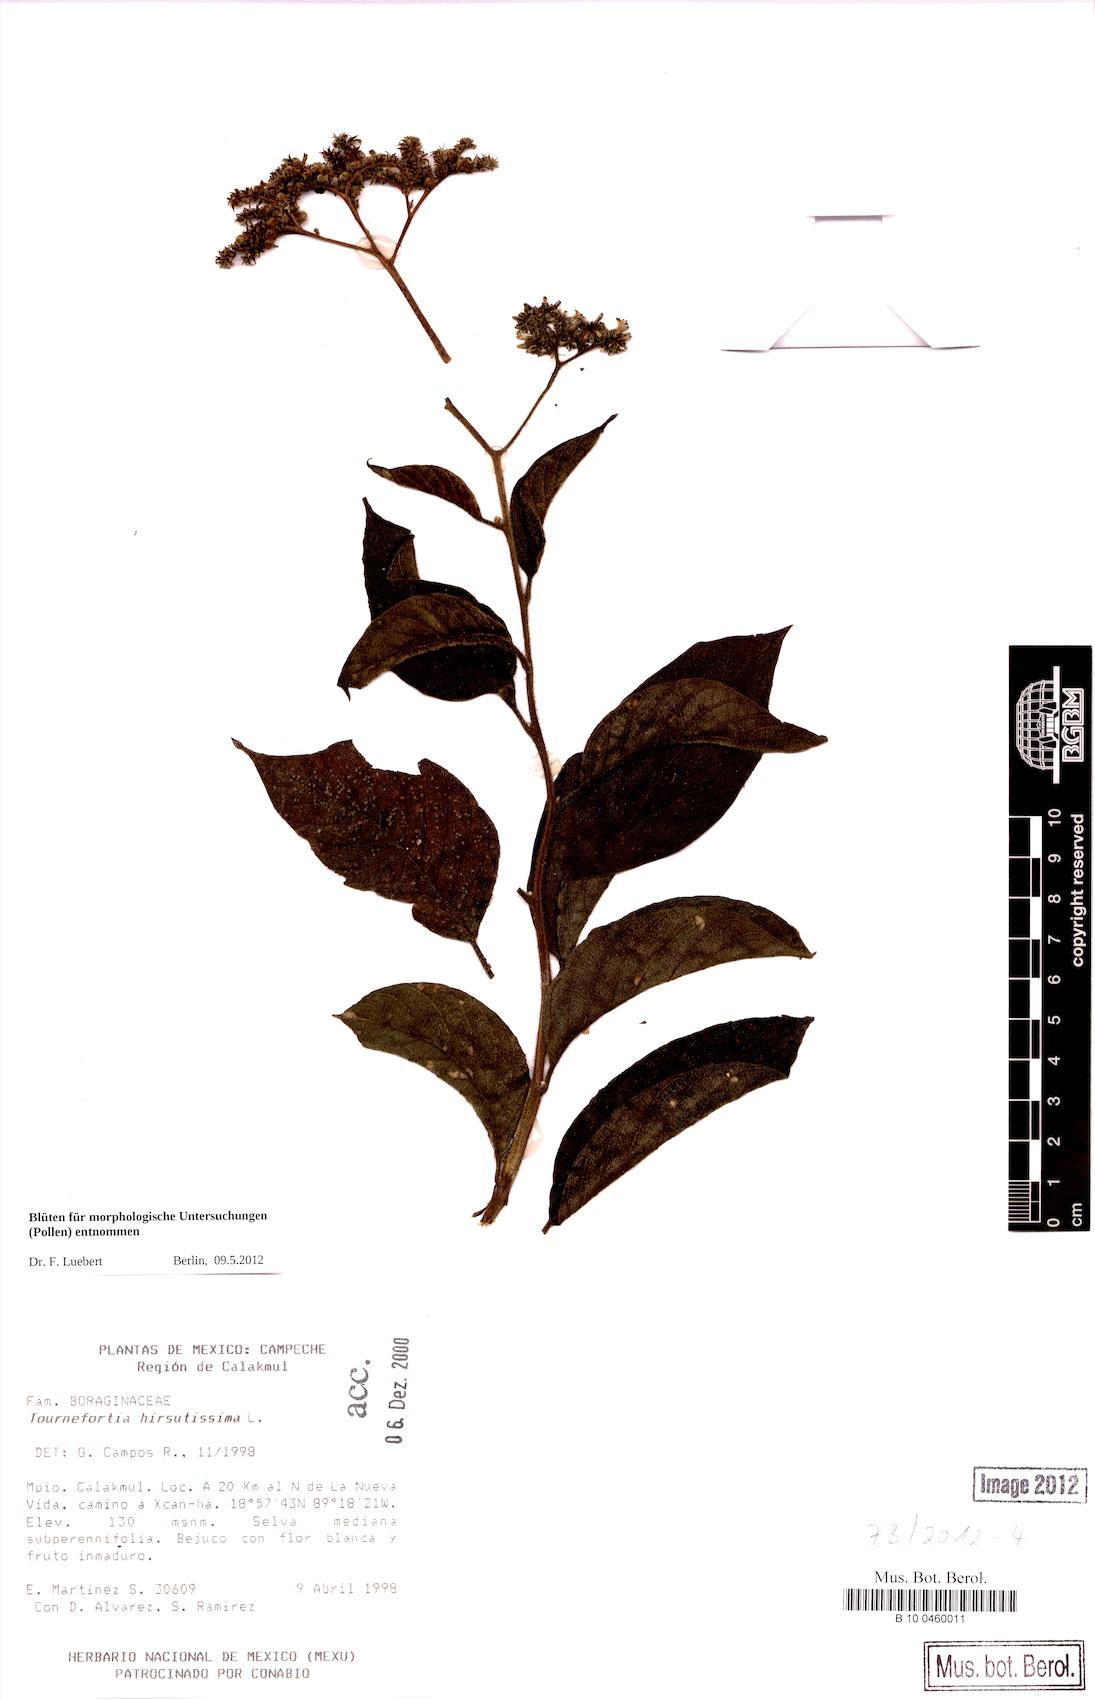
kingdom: Plantae
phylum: Tracheophyta
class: Magnoliopsida
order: Boraginales
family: Heliotropiaceae
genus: Heliotropium
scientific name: Heliotropium
